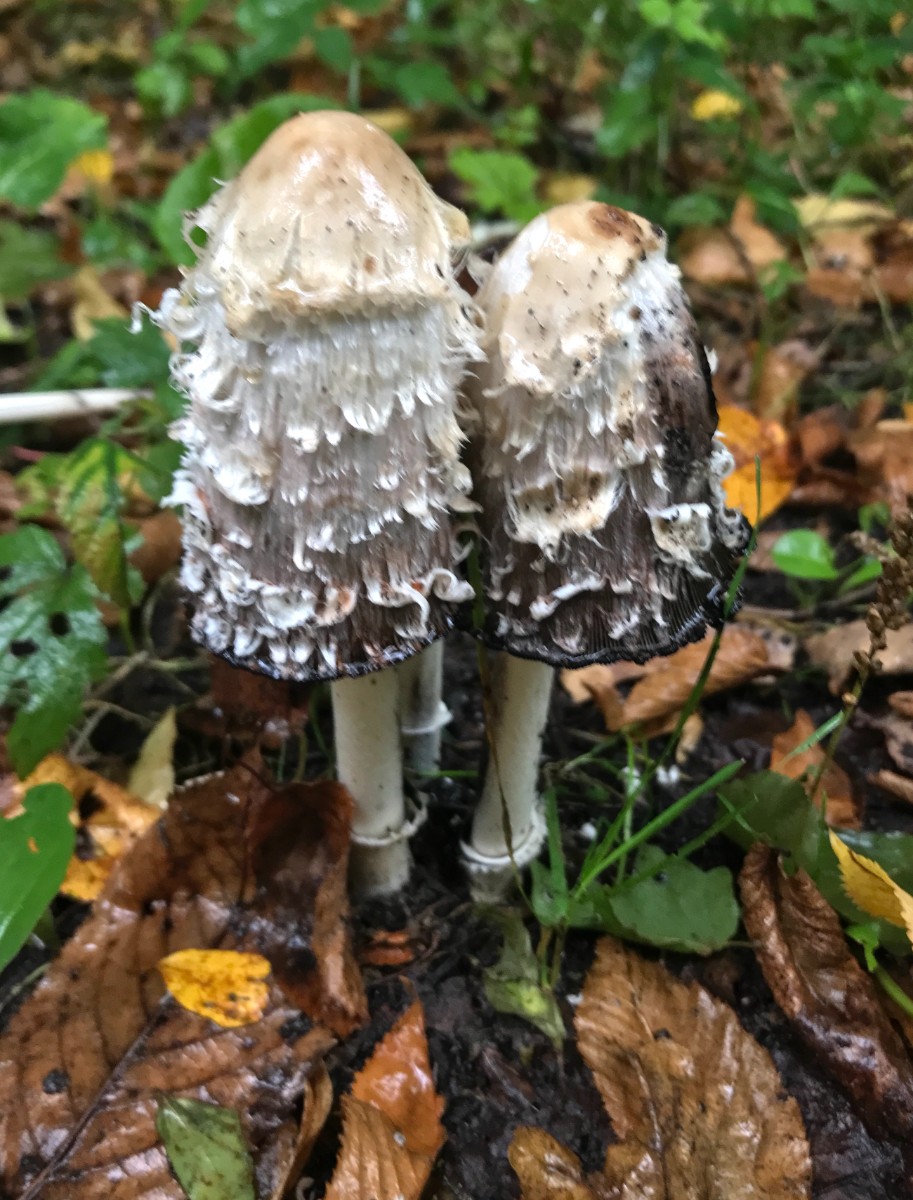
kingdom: Fungi
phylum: Basidiomycota
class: Agaricomycetes
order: Agaricales
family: Agaricaceae
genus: Coprinus
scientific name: Coprinus comatus
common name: stor parykhat
